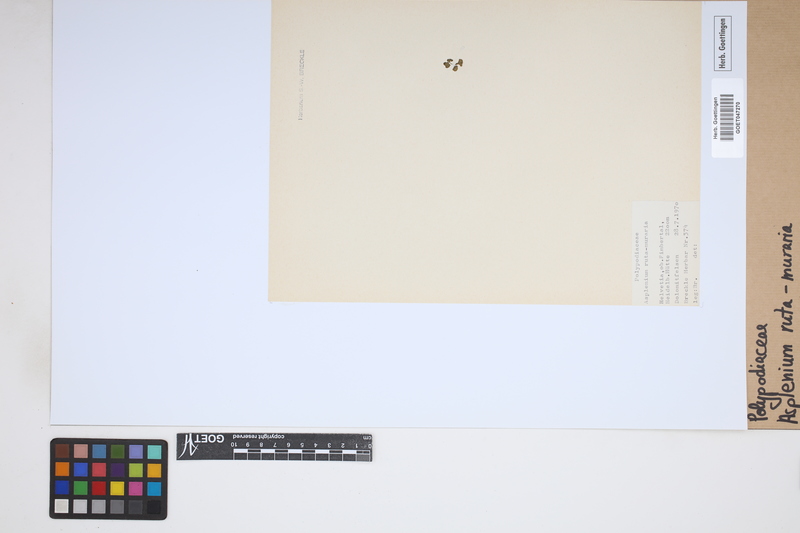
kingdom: Plantae
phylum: Tracheophyta
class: Polypodiopsida
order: Polypodiales
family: Aspleniaceae
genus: Asplenium
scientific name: Asplenium ruta-muraria
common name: Wall-rue
